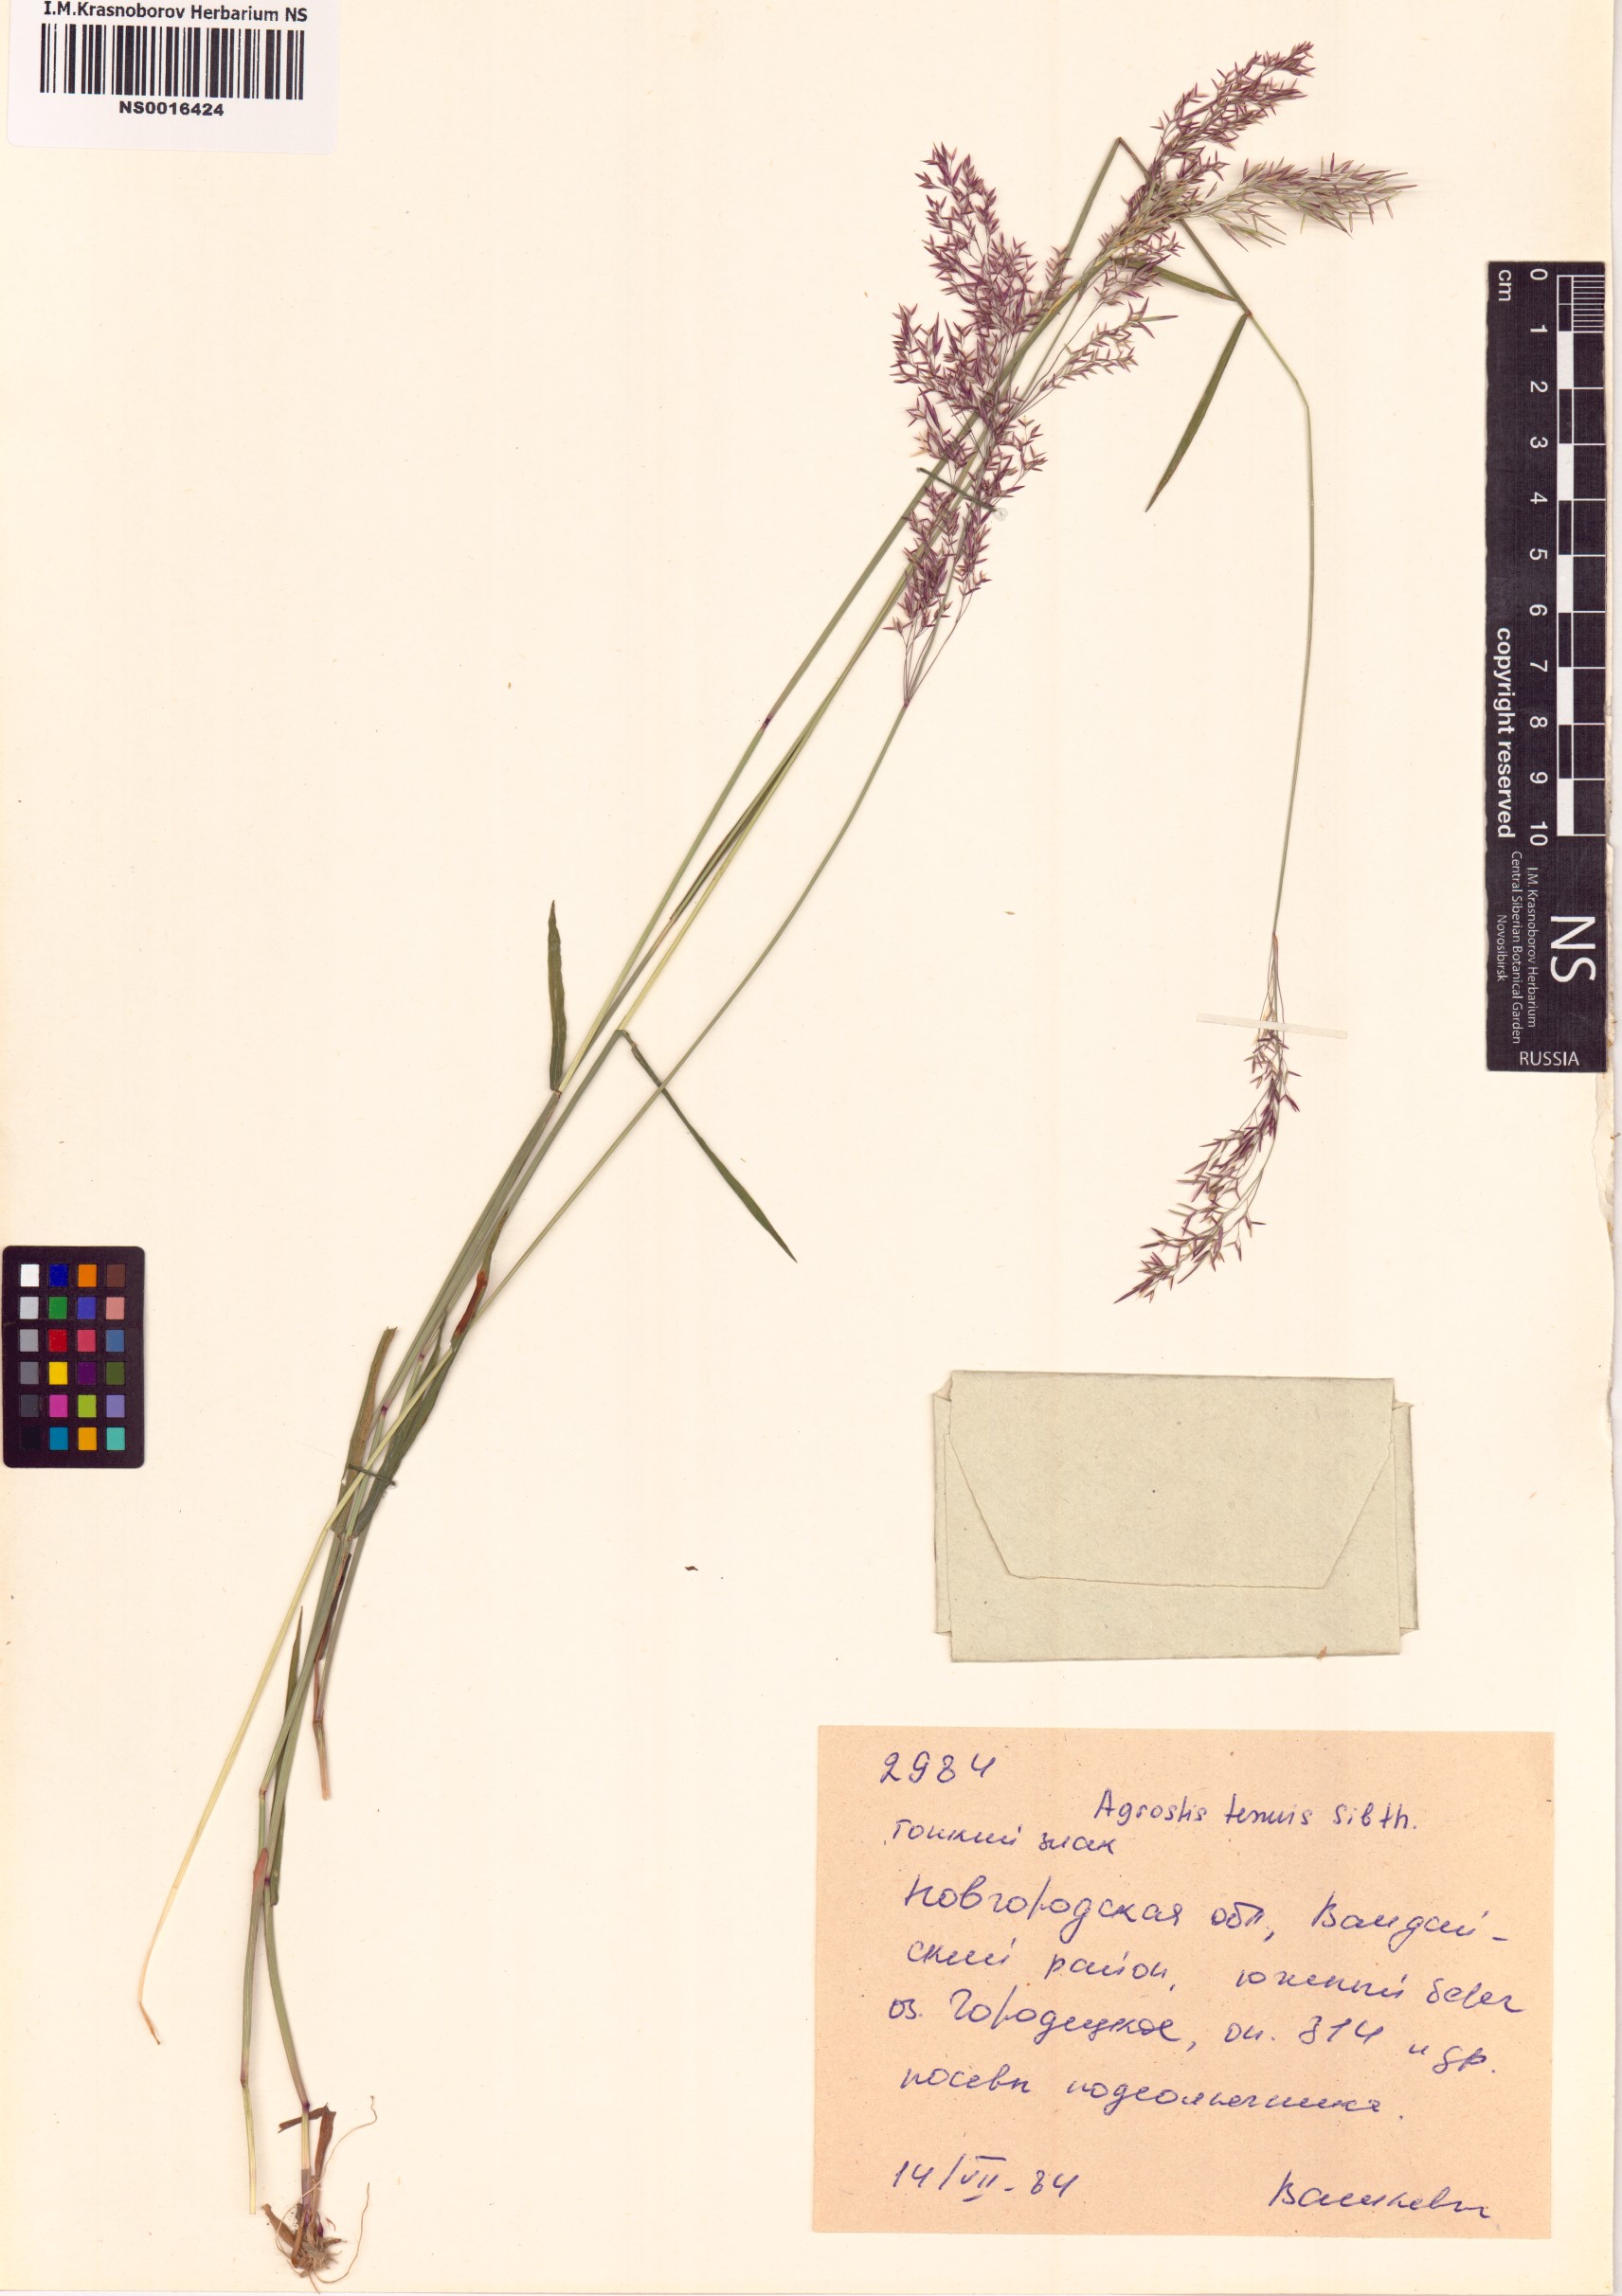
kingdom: Plantae
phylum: Tracheophyta
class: Liliopsida
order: Poales
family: Poaceae
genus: Agrostis
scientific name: Agrostis capillaris
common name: Colonial bentgrass
